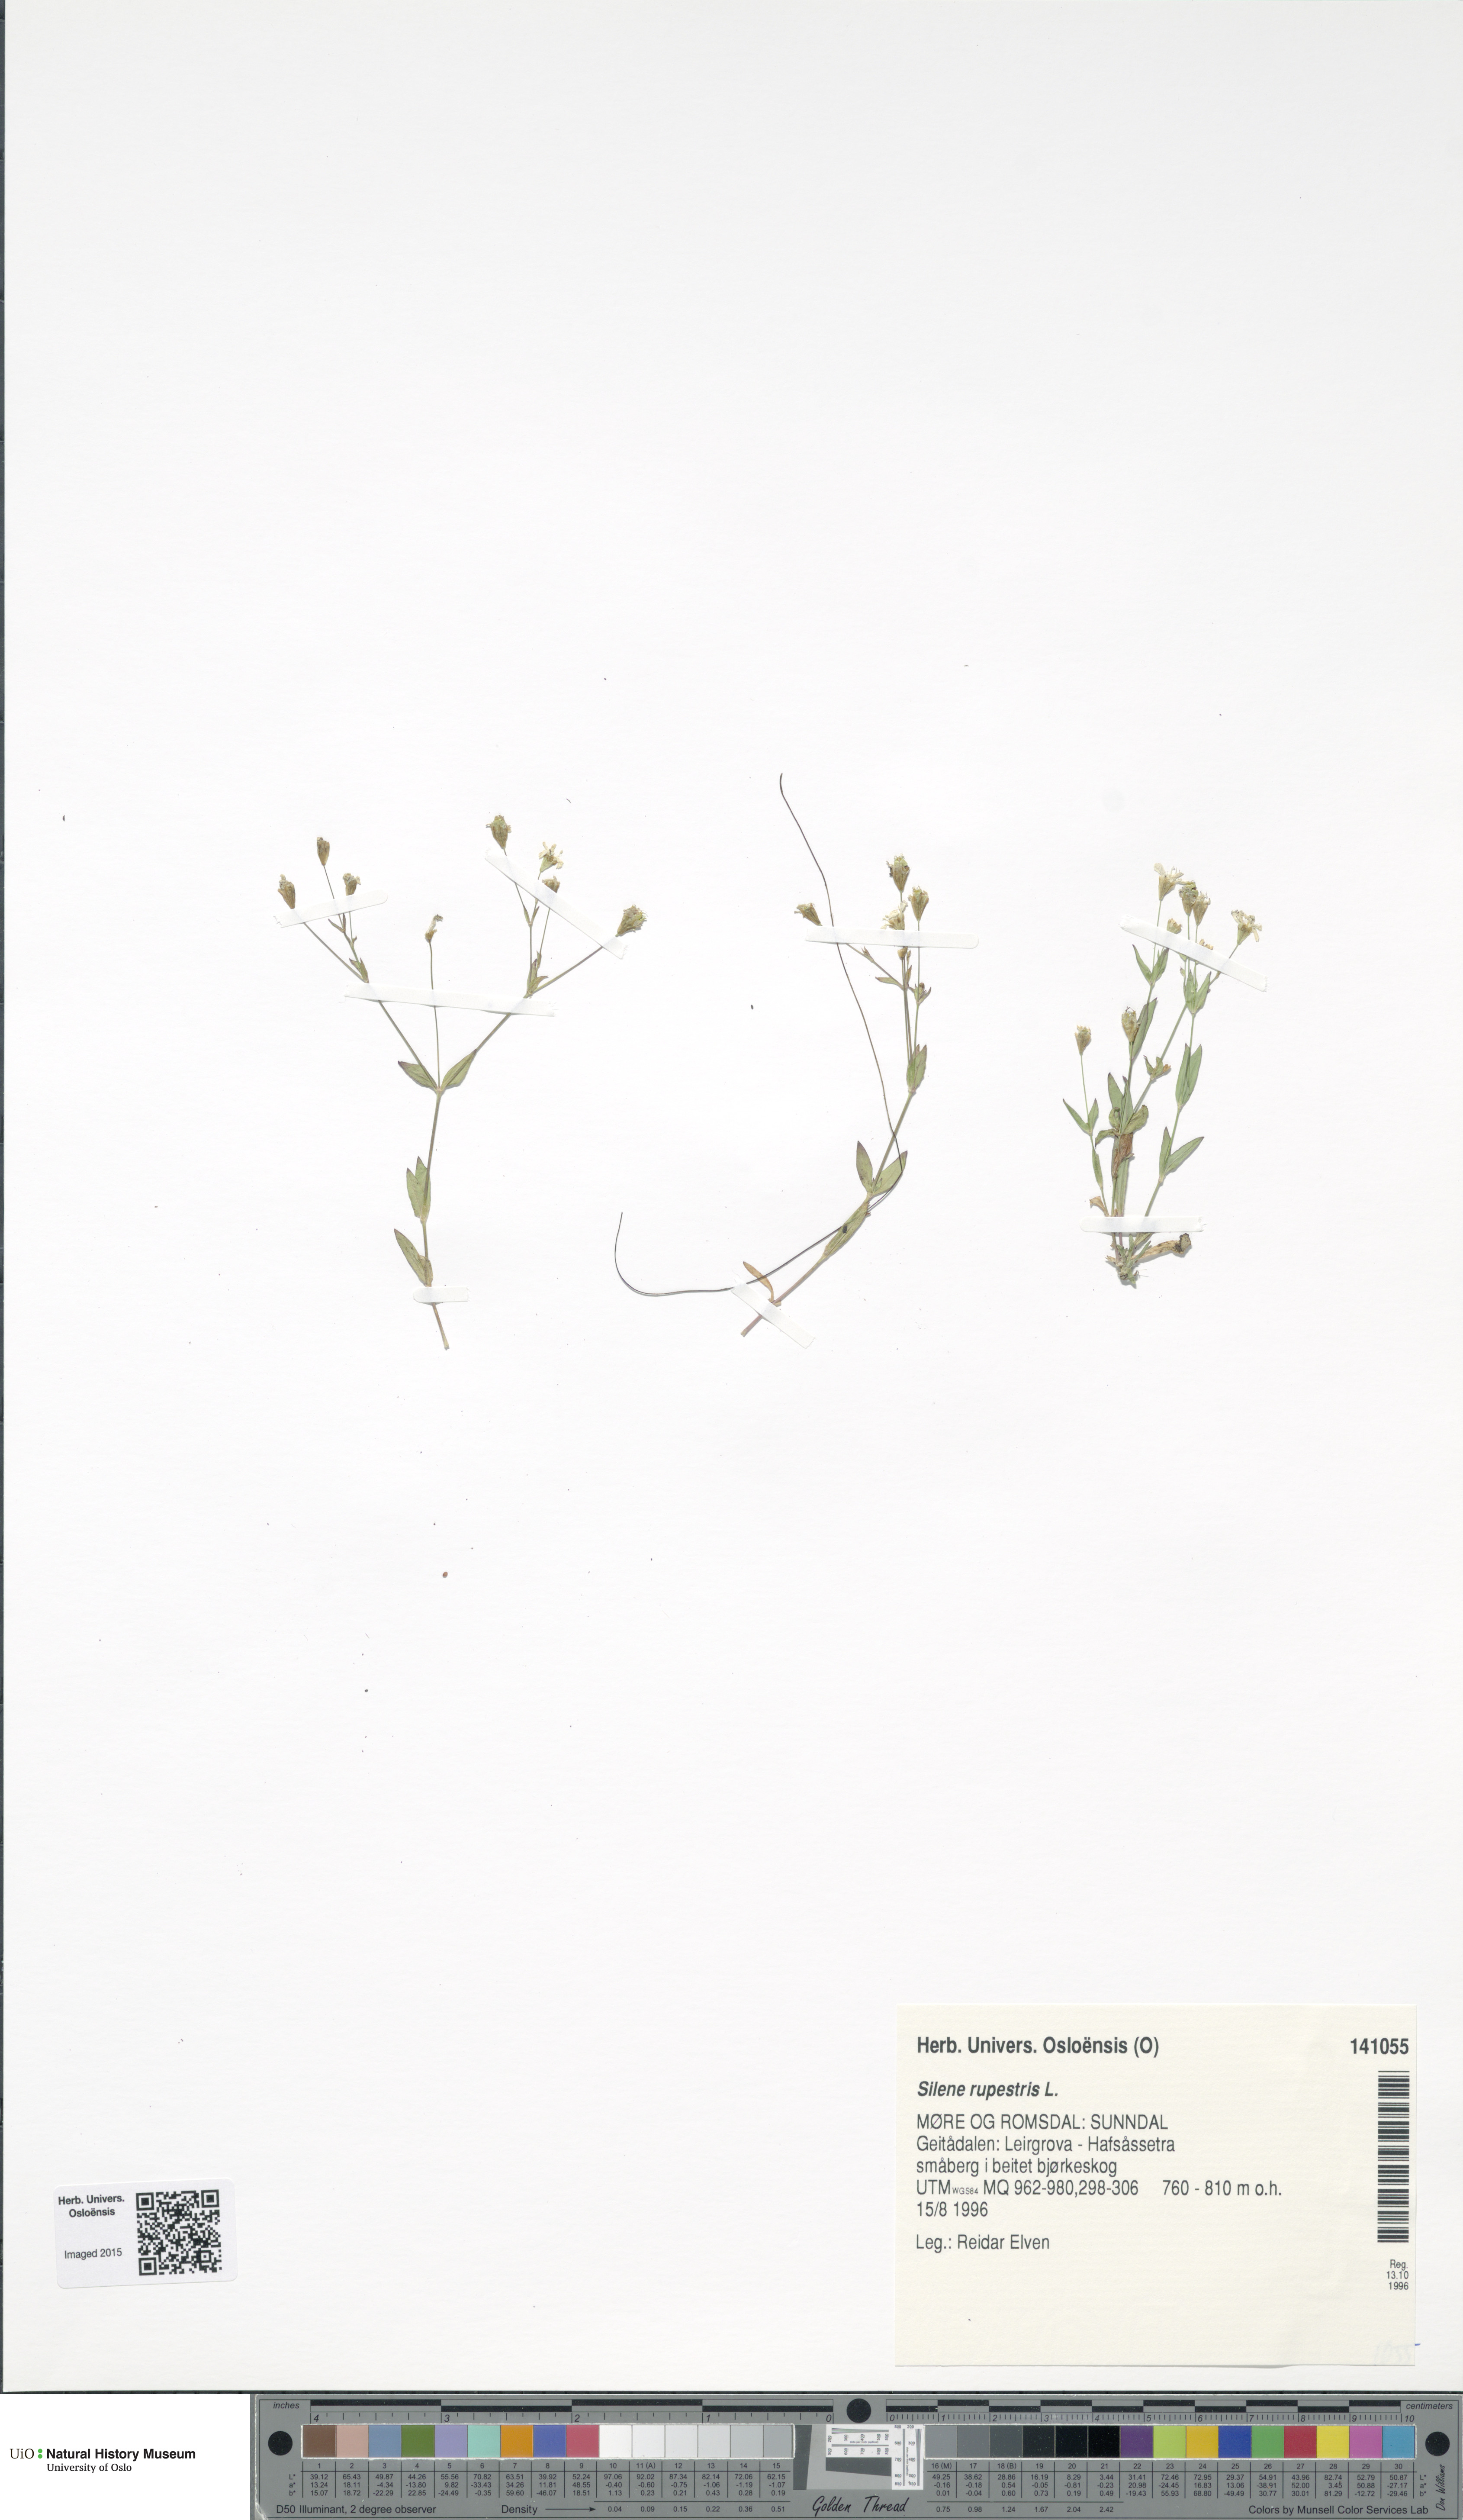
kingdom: Plantae
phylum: Tracheophyta
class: Magnoliopsida
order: Caryophyllales
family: Caryophyllaceae
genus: Atocion
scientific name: Atocion rupestre
